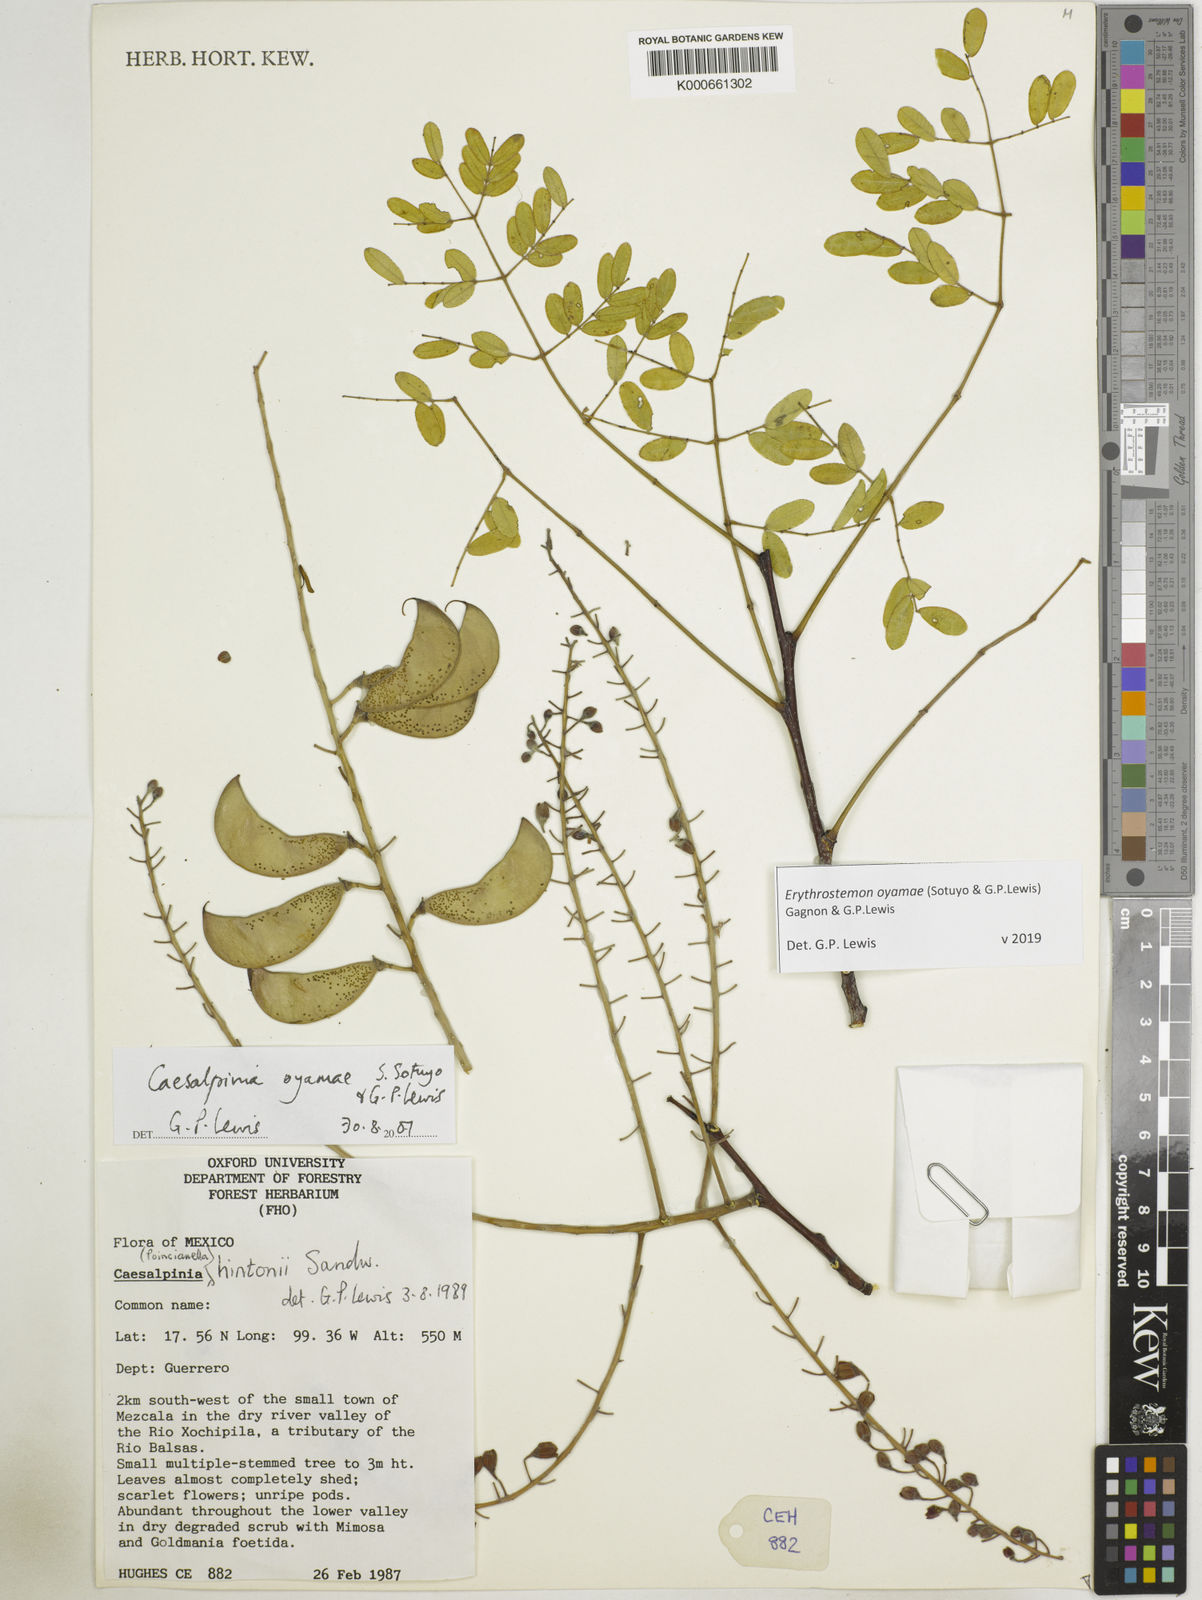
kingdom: Plantae
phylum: Tracheophyta
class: Magnoliopsida
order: Fabales
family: Fabaceae
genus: Erythrostemon
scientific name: Erythrostemon oyamae
